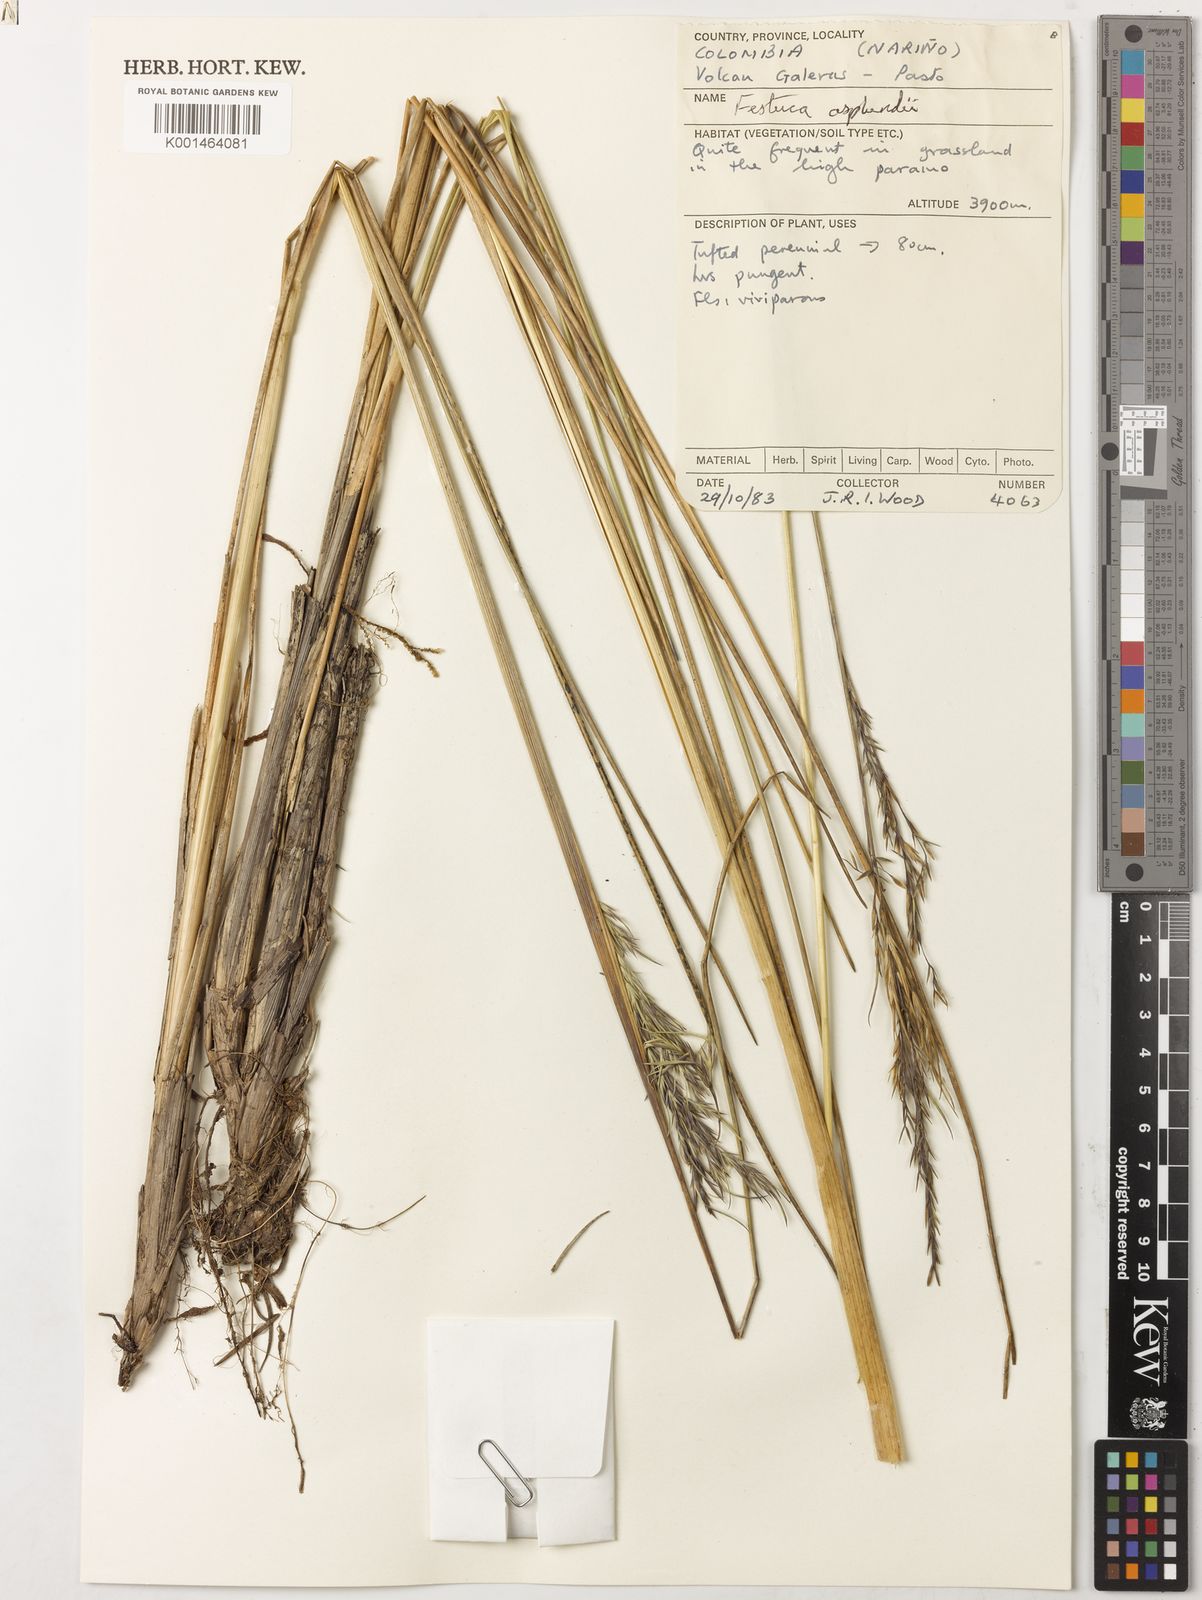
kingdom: Plantae
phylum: Tracheophyta
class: Liliopsida
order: Poales
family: Poaceae
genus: Festuca
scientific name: Festuca asplundii
